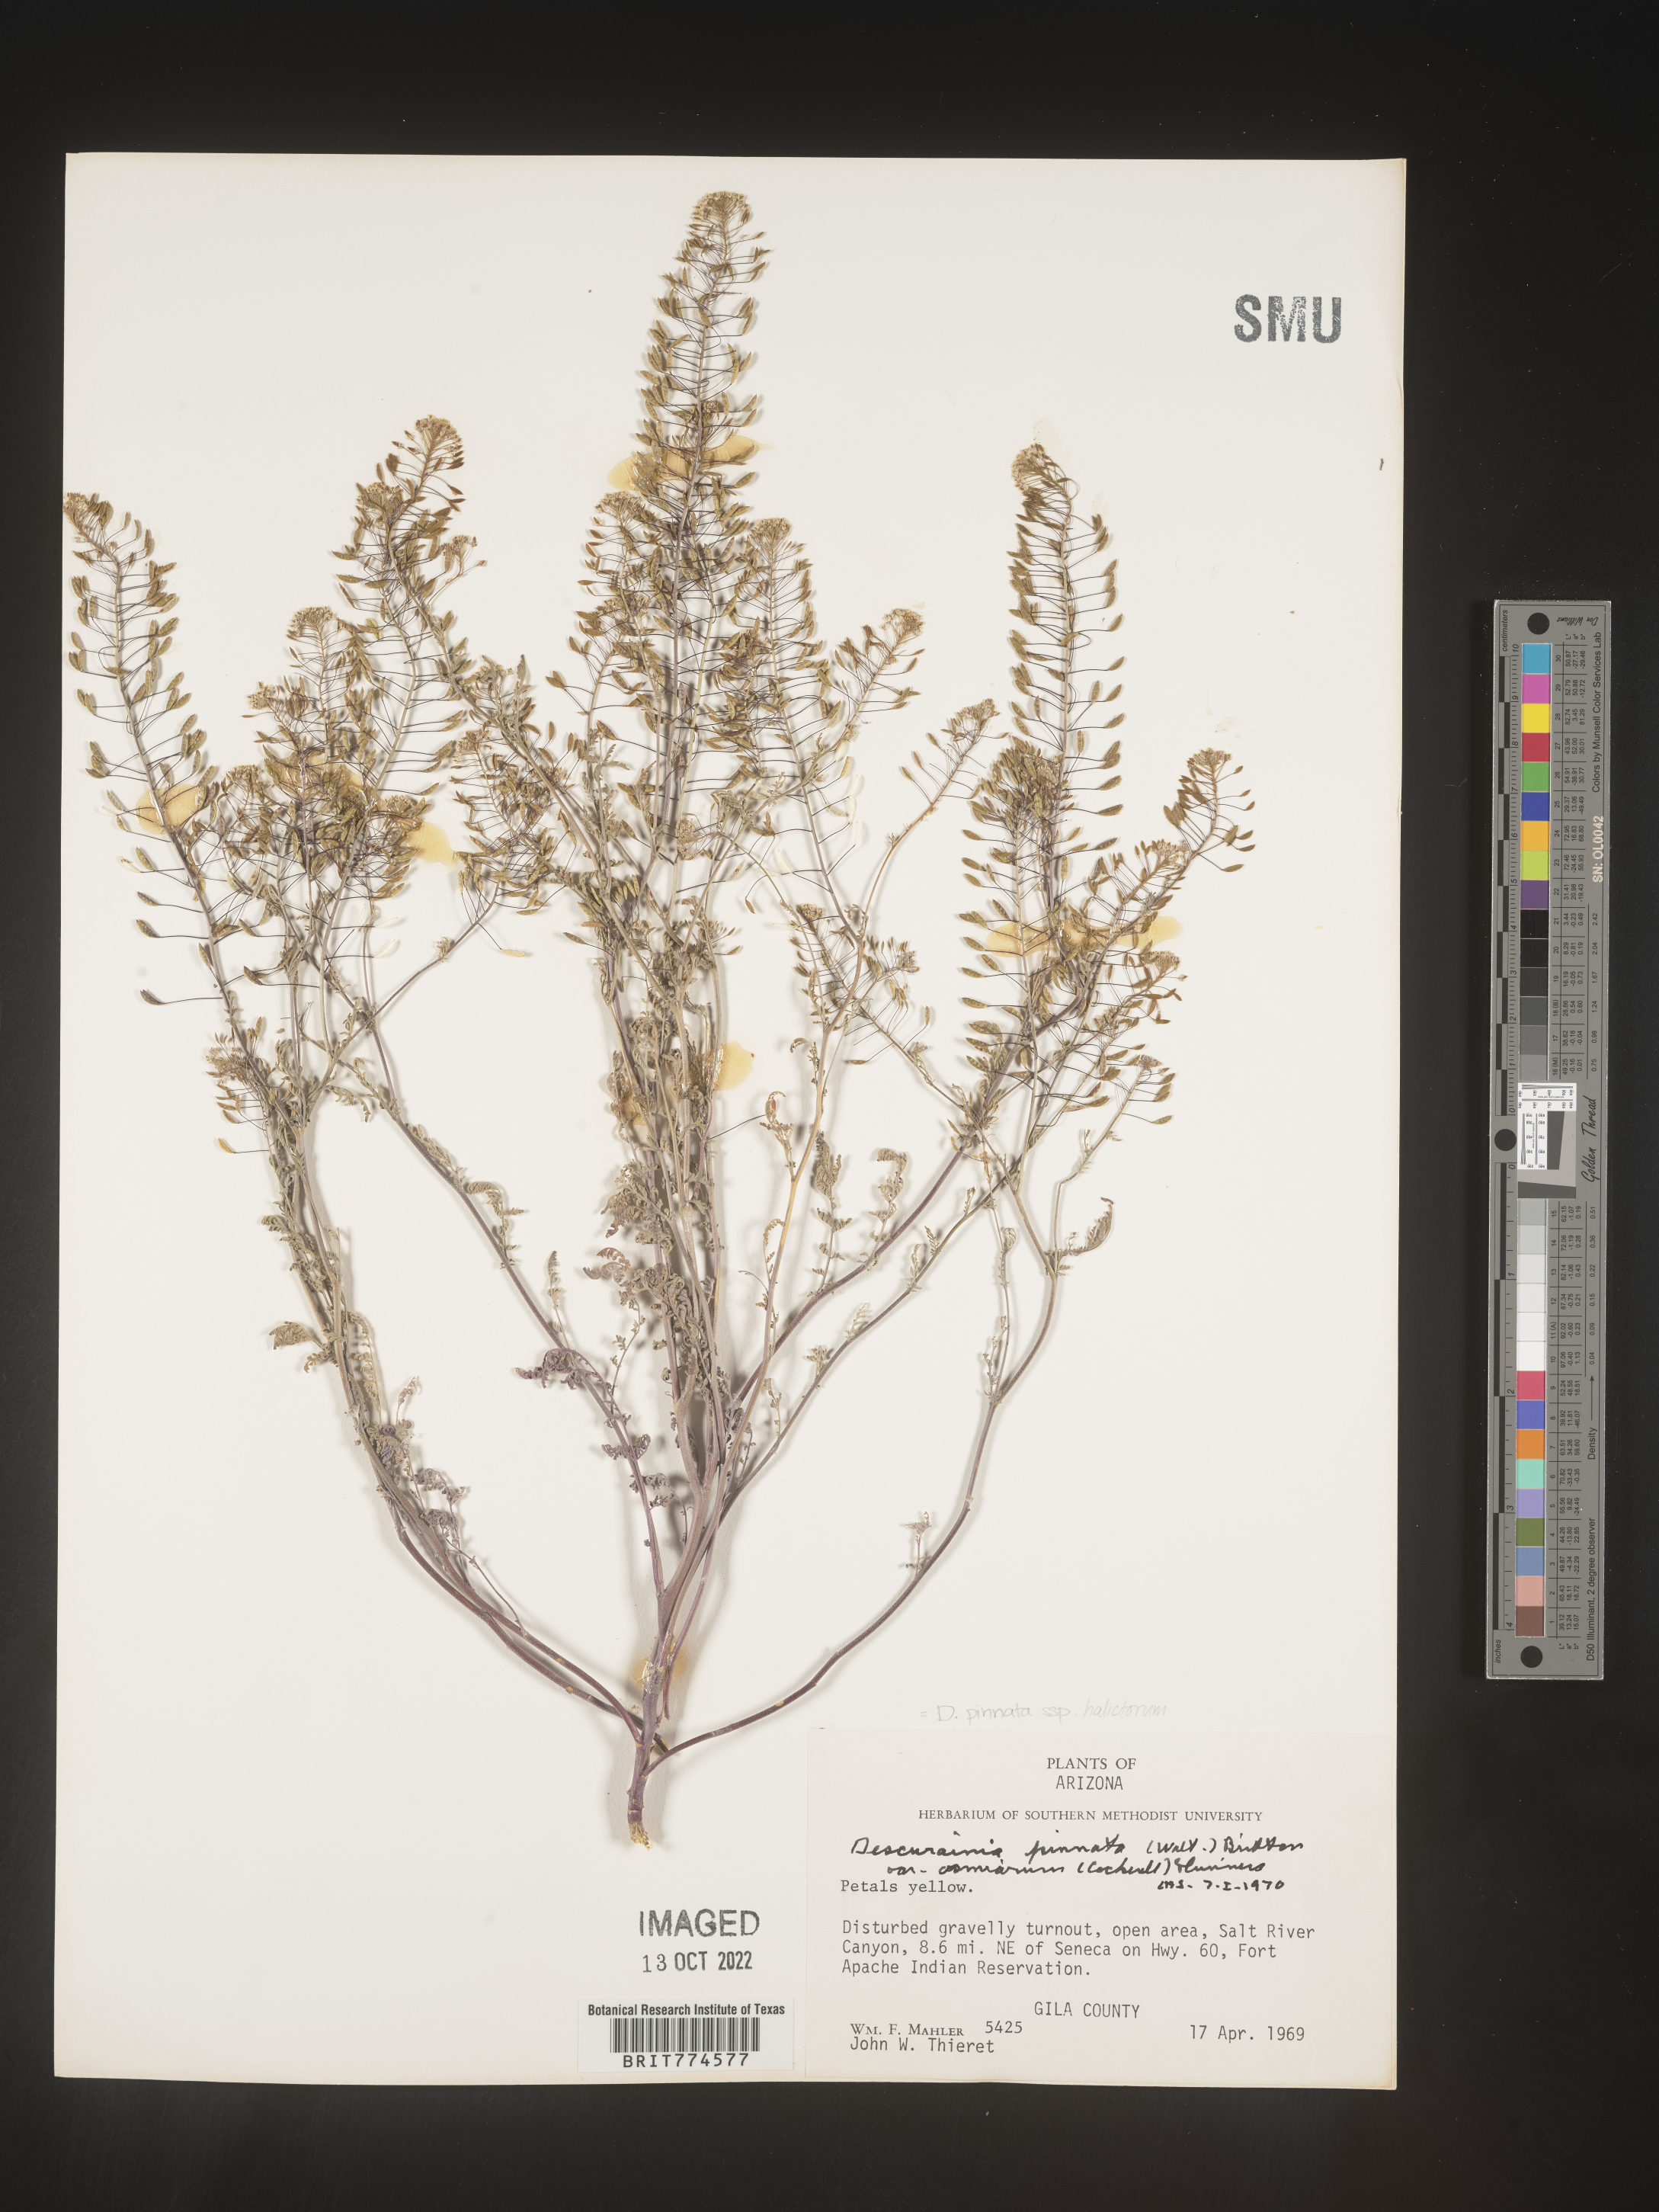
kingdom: Plantae
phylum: Tracheophyta
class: Magnoliopsida
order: Brassicales
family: Brassicaceae
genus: Descurainia
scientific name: Descurainia pinnata
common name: Western tansy mustard
